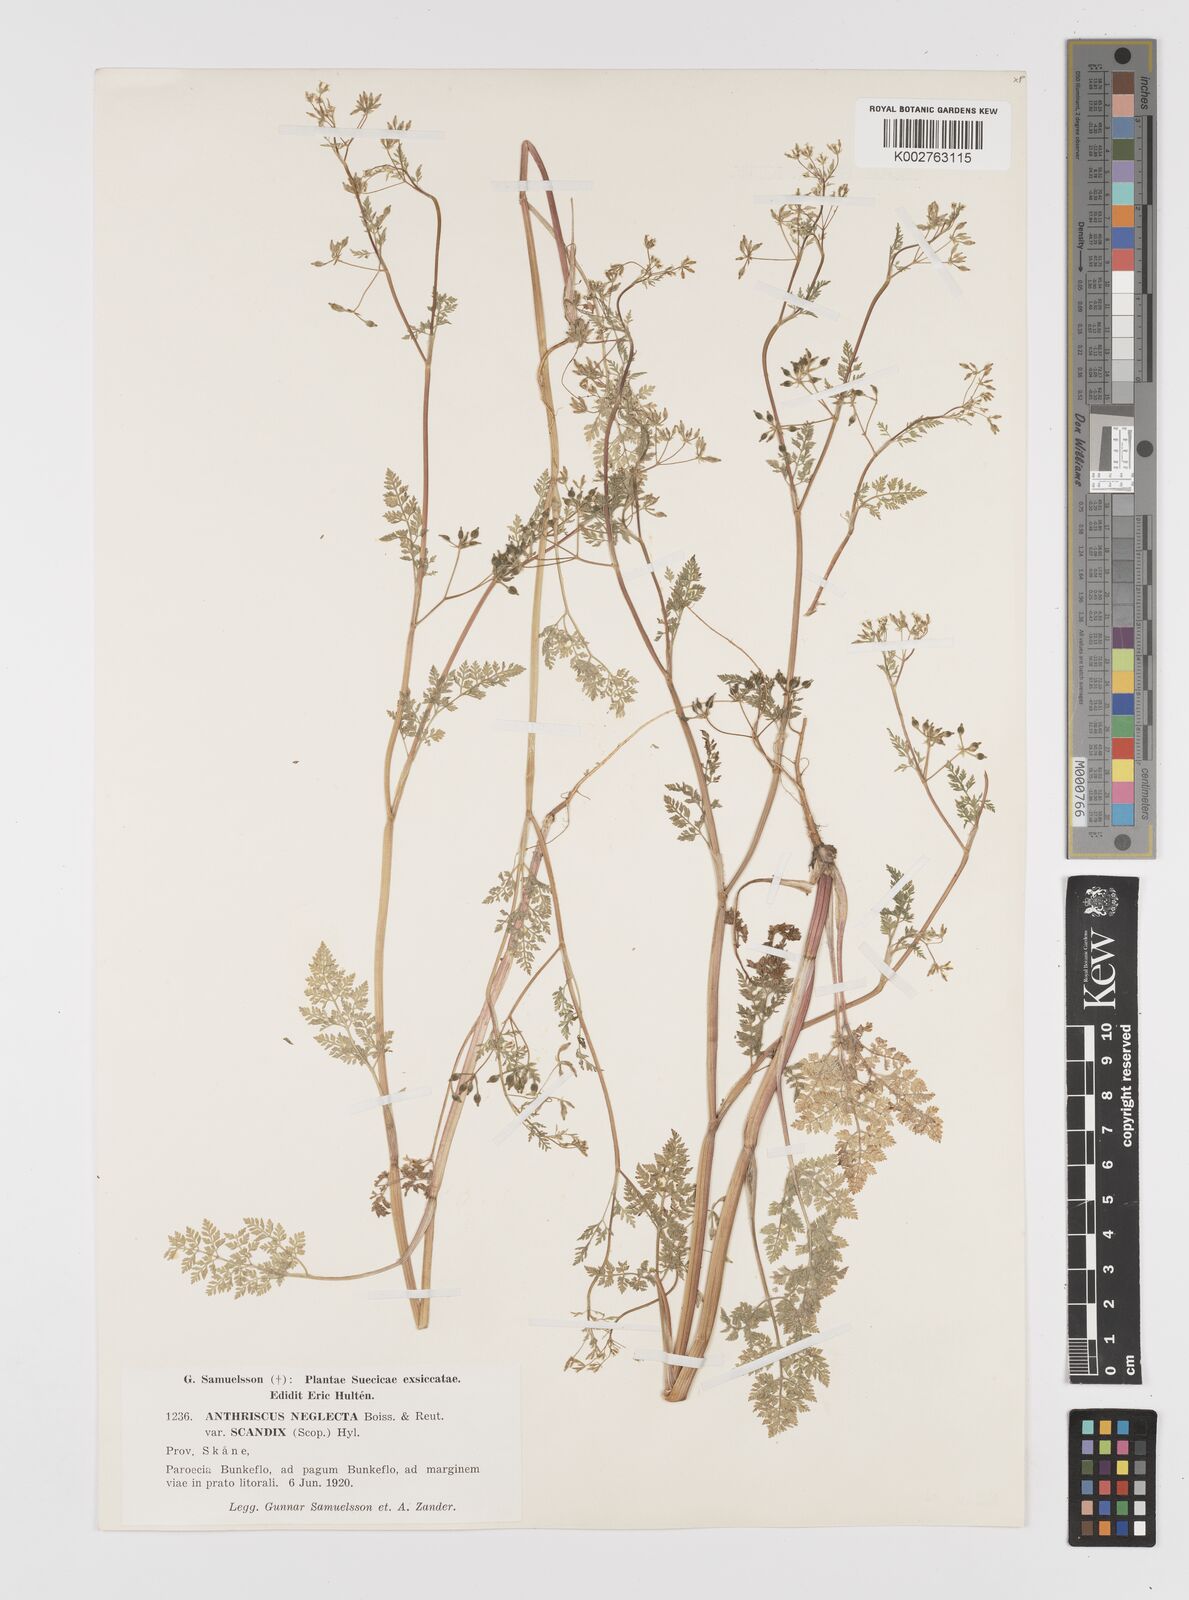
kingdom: Plantae
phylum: Tracheophyta
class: Magnoliopsida
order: Apiales
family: Apiaceae
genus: Anthriscus
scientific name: Anthriscus caucalis
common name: Bur chervil
